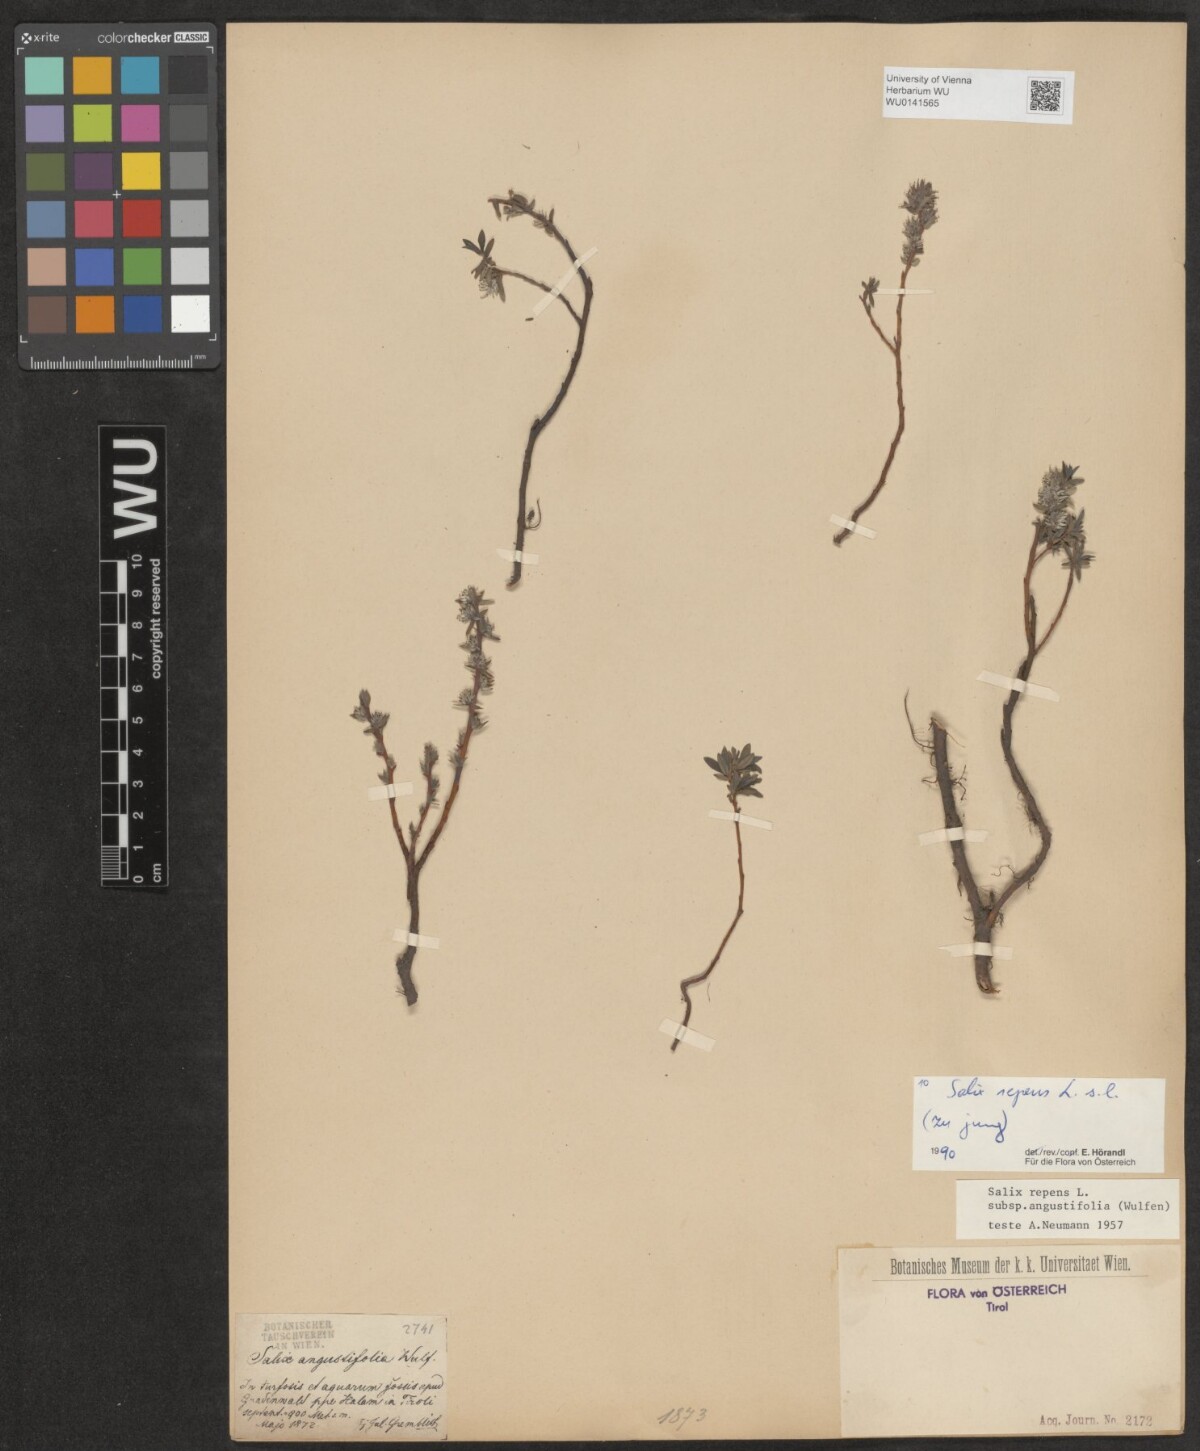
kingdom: Plantae
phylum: Tracheophyta
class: Magnoliopsida
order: Malpighiales
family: Salicaceae
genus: Salix
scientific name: Salix repens
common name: Creeping willow
